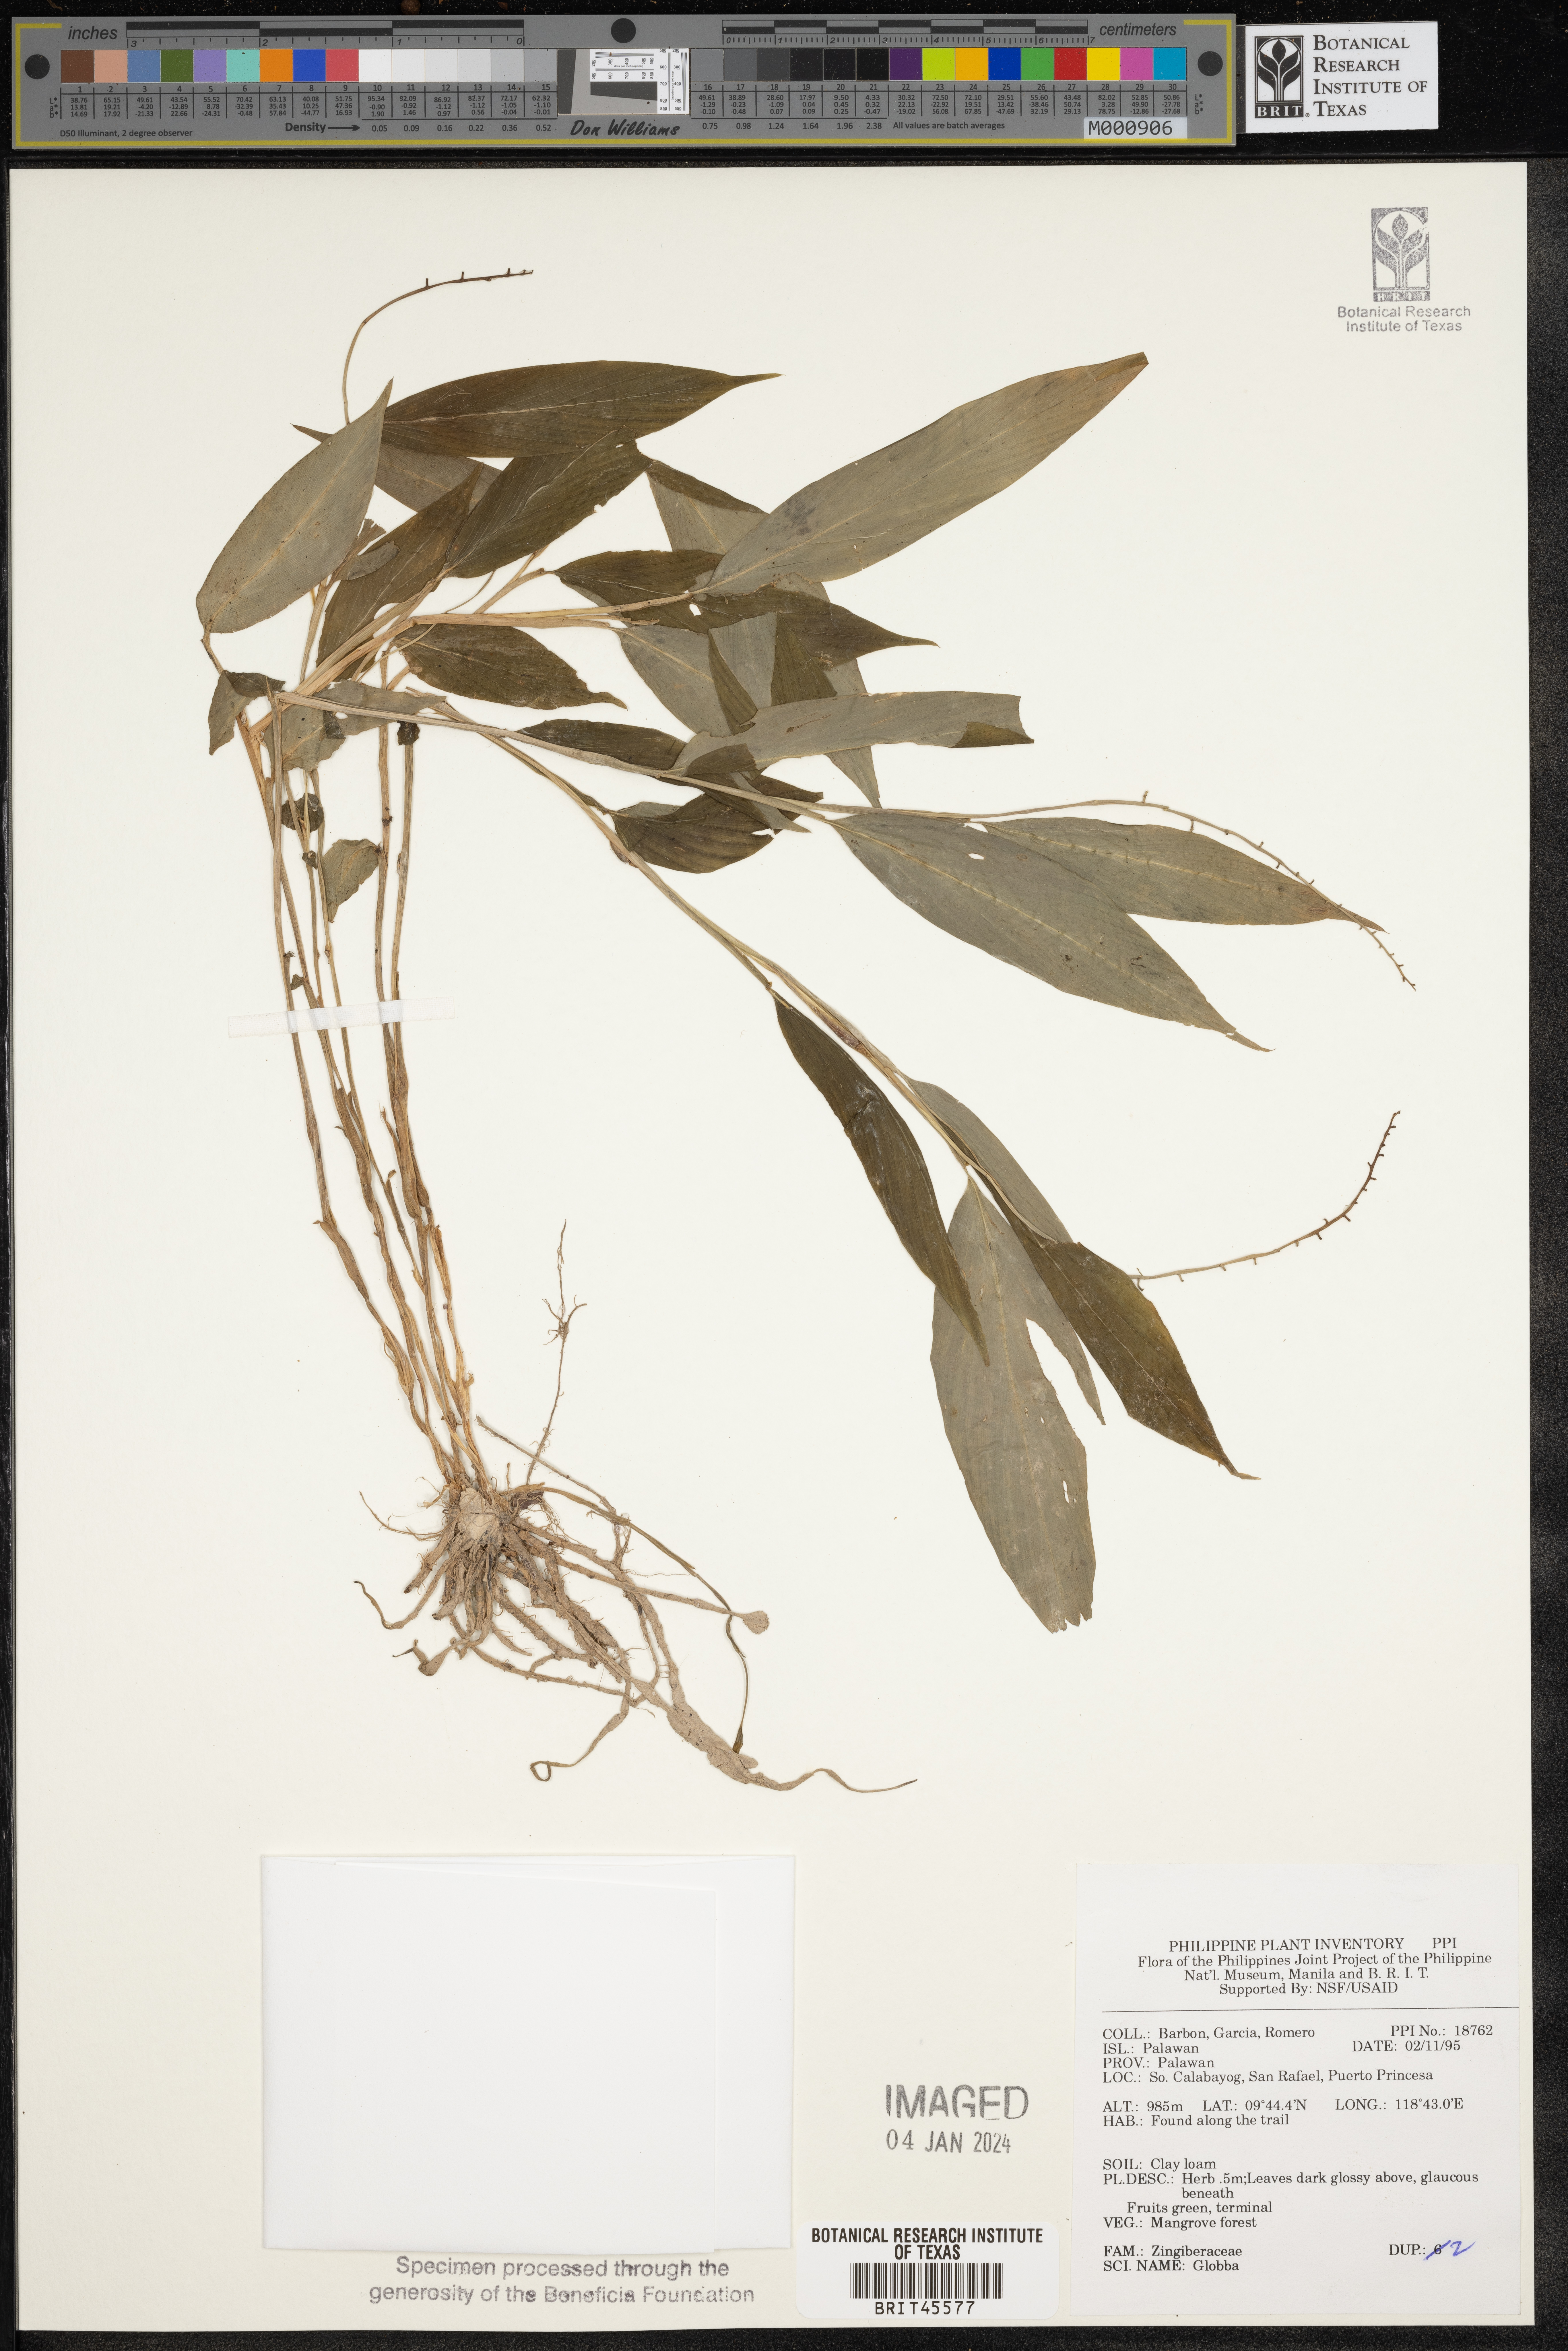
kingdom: Plantae
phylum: Tracheophyta
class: Liliopsida
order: Zingiberales
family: Zingiberaceae
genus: Globba
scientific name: Globba
